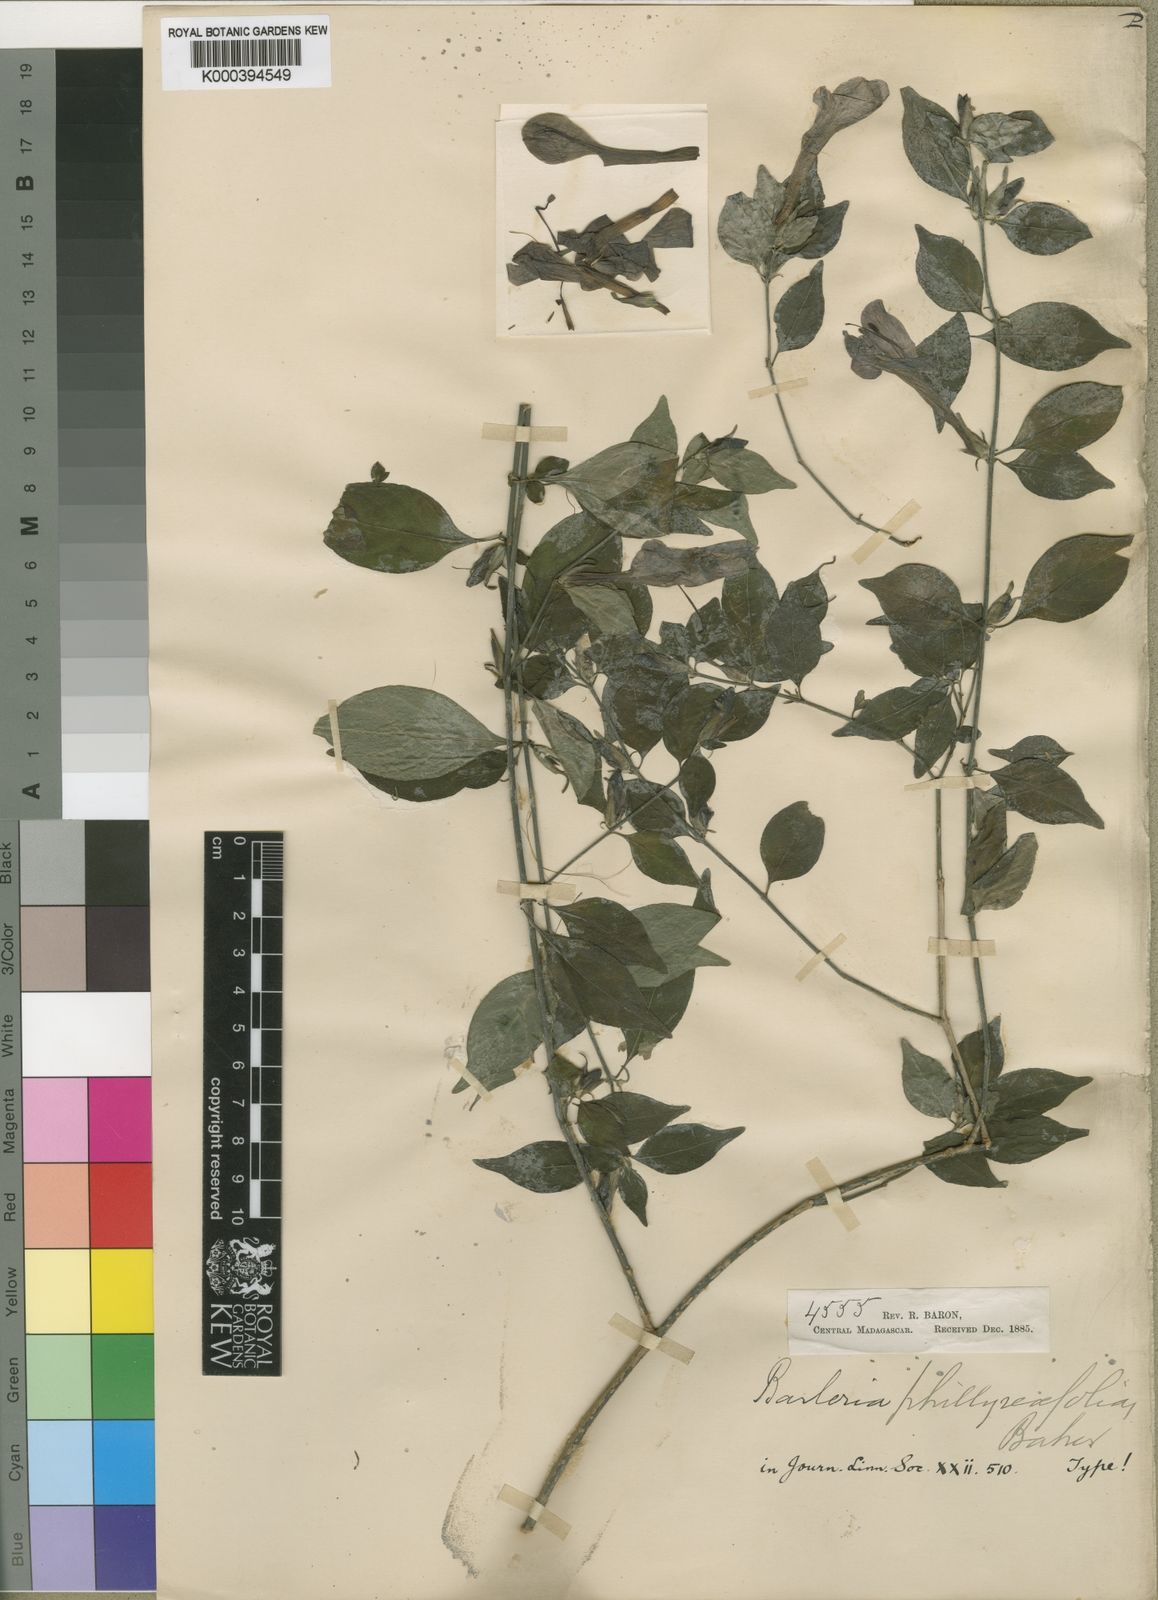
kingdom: Plantae
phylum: Tracheophyta
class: Magnoliopsida
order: Lamiales
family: Acanthaceae
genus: Barleria
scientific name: Barleria phillyreifolia
